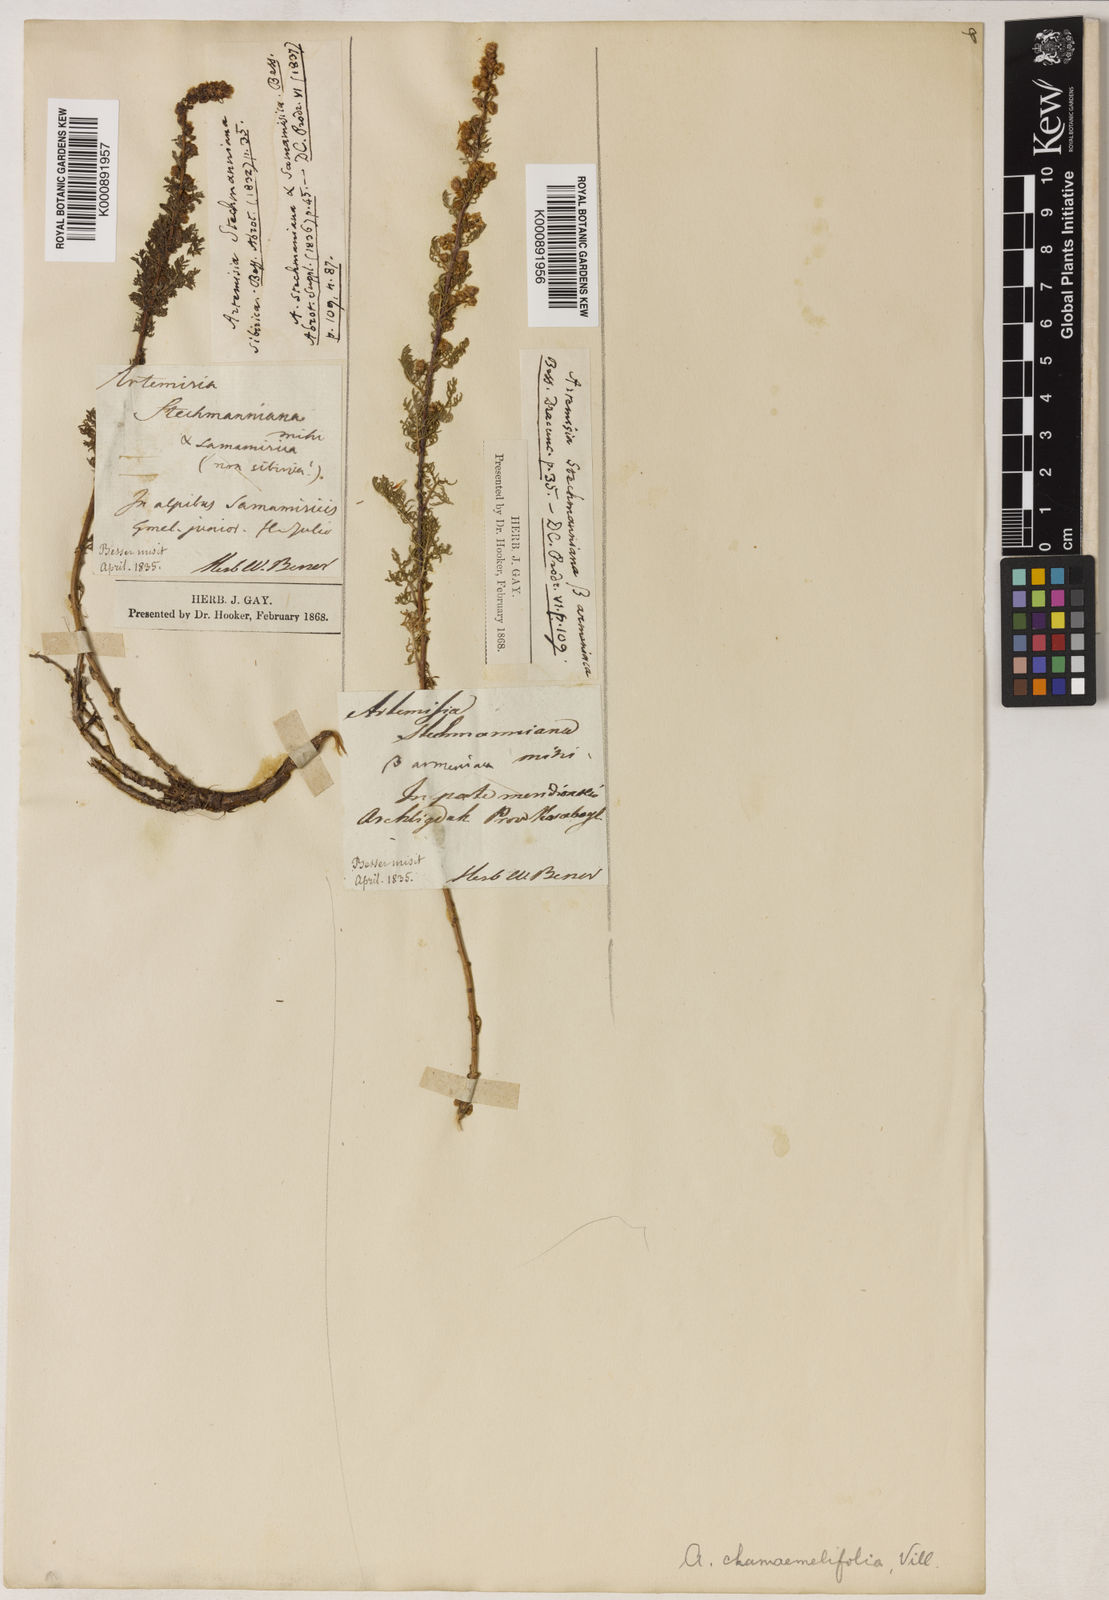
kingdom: Plantae
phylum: Tracheophyta
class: Magnoliopsida
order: Asterales
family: Asteraceae
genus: Artemisia
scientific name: Artemisia chamaemelifolia
